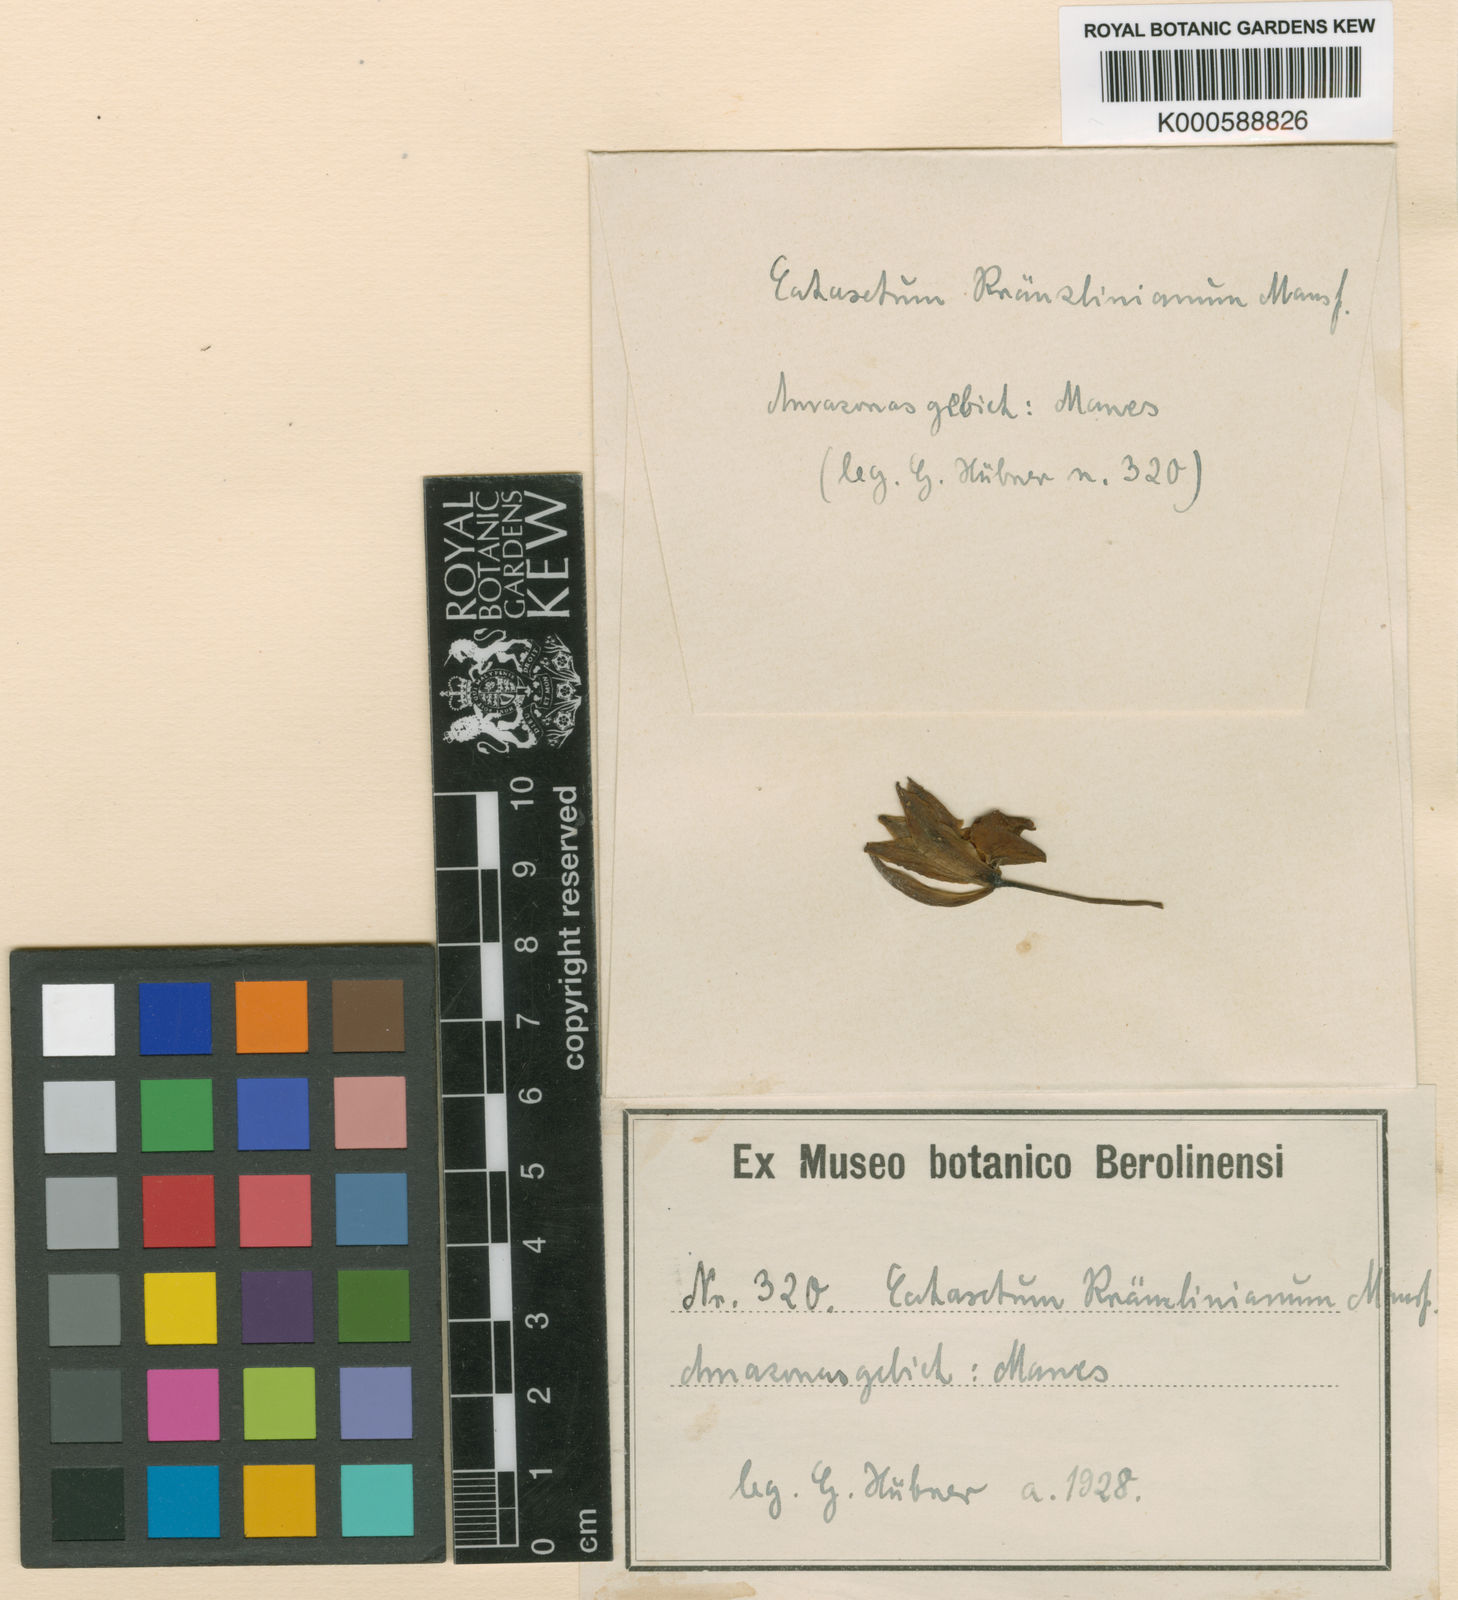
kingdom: Plantae
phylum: Tracheophyta
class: Liliopsida
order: Asparagales
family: Orchidaceae
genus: Catasetum
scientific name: Catasetum
